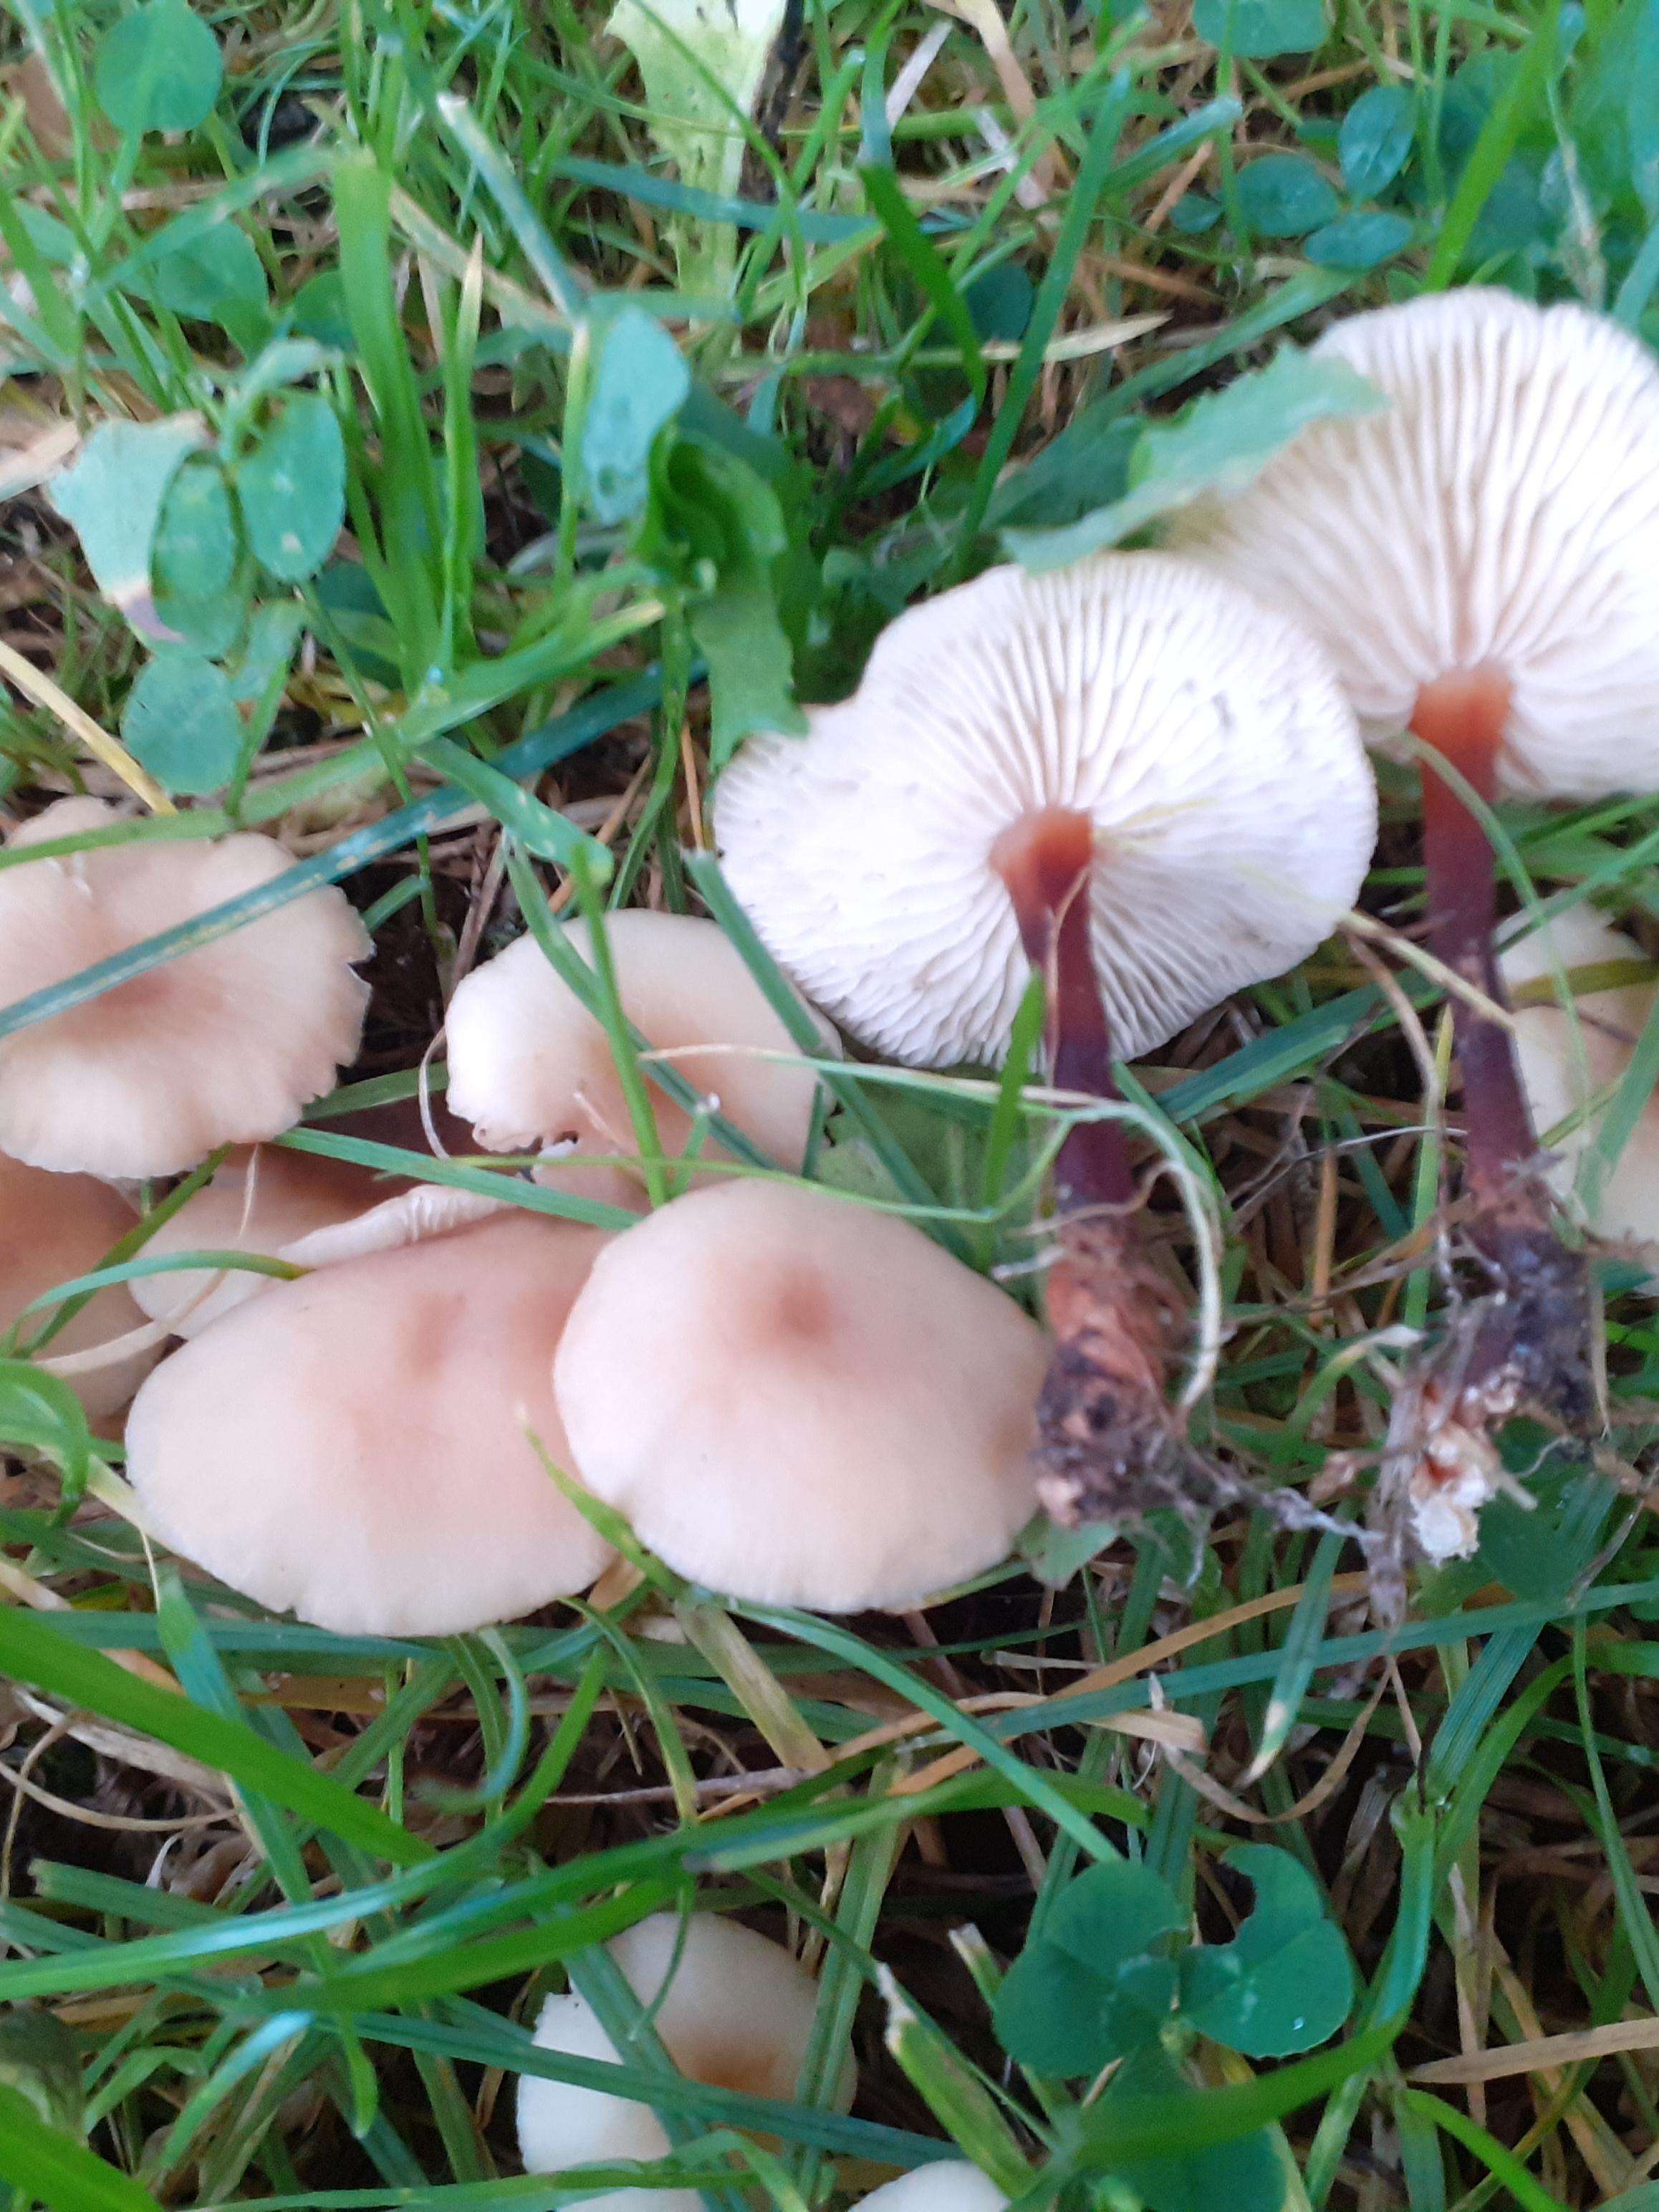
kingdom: Fungi
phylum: Basidiomycota
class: Agaricomycetes
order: Agaricales
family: Omphalotaceae
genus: Gymnopus
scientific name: Gymnopus erythropus
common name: rødstokket fladhat
